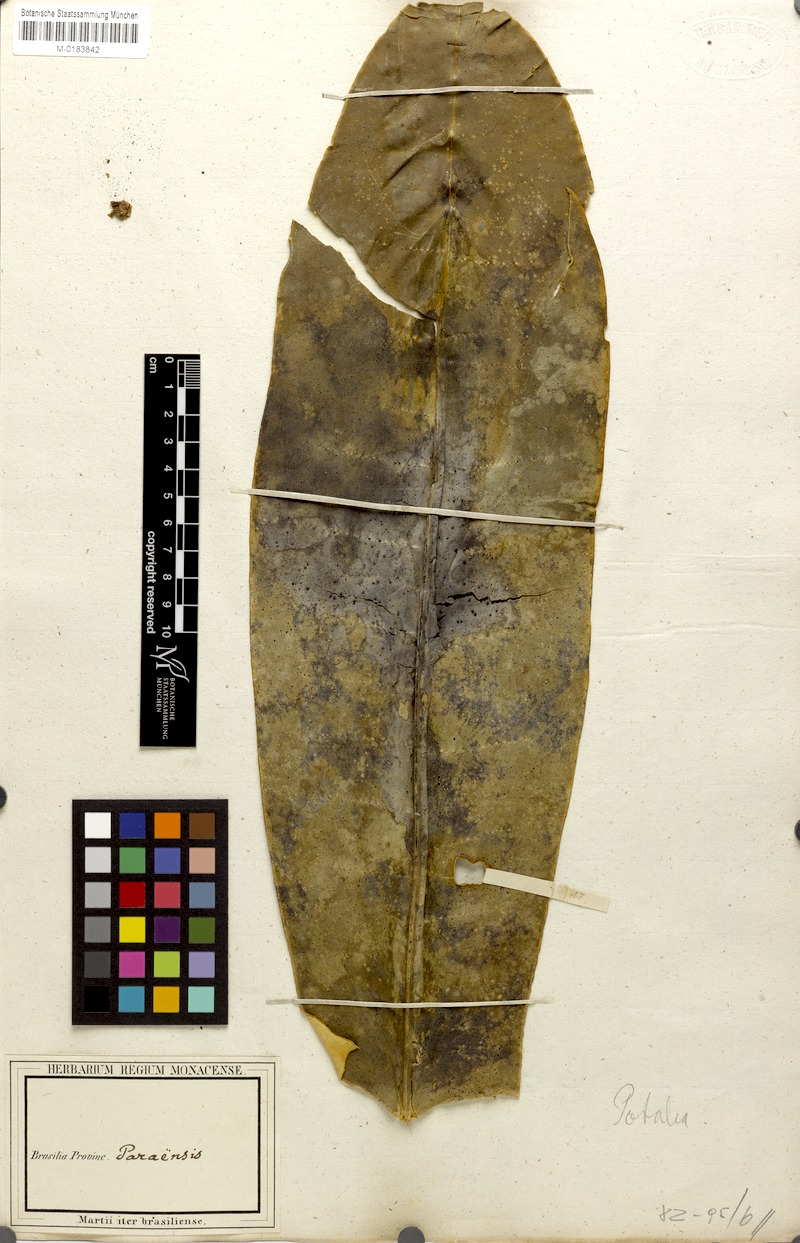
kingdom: Plantae
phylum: Tracheophyta
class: Magnoliopsida
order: Gentianales
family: Gentianaceae
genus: Potalia
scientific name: Potalia resinifera
